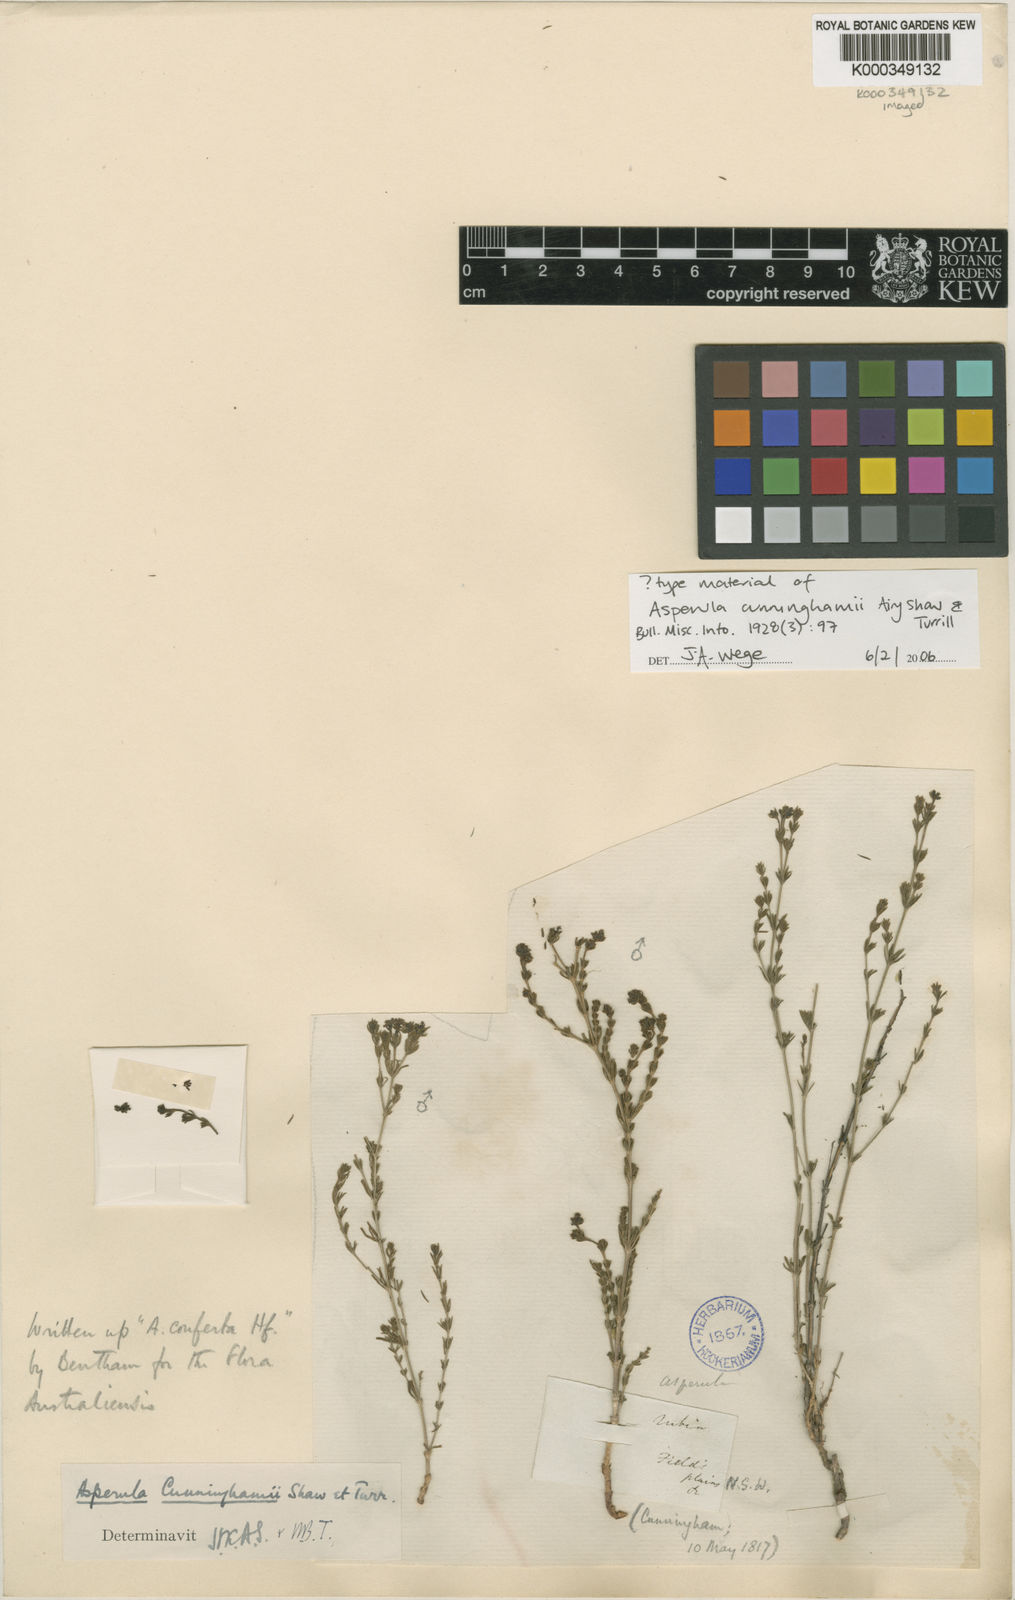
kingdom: Plantae
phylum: Tracheophyta
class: Magnoliopsida
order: Gentianales
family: Rubiaceae
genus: Asperula
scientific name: Asperula cunninghamii
